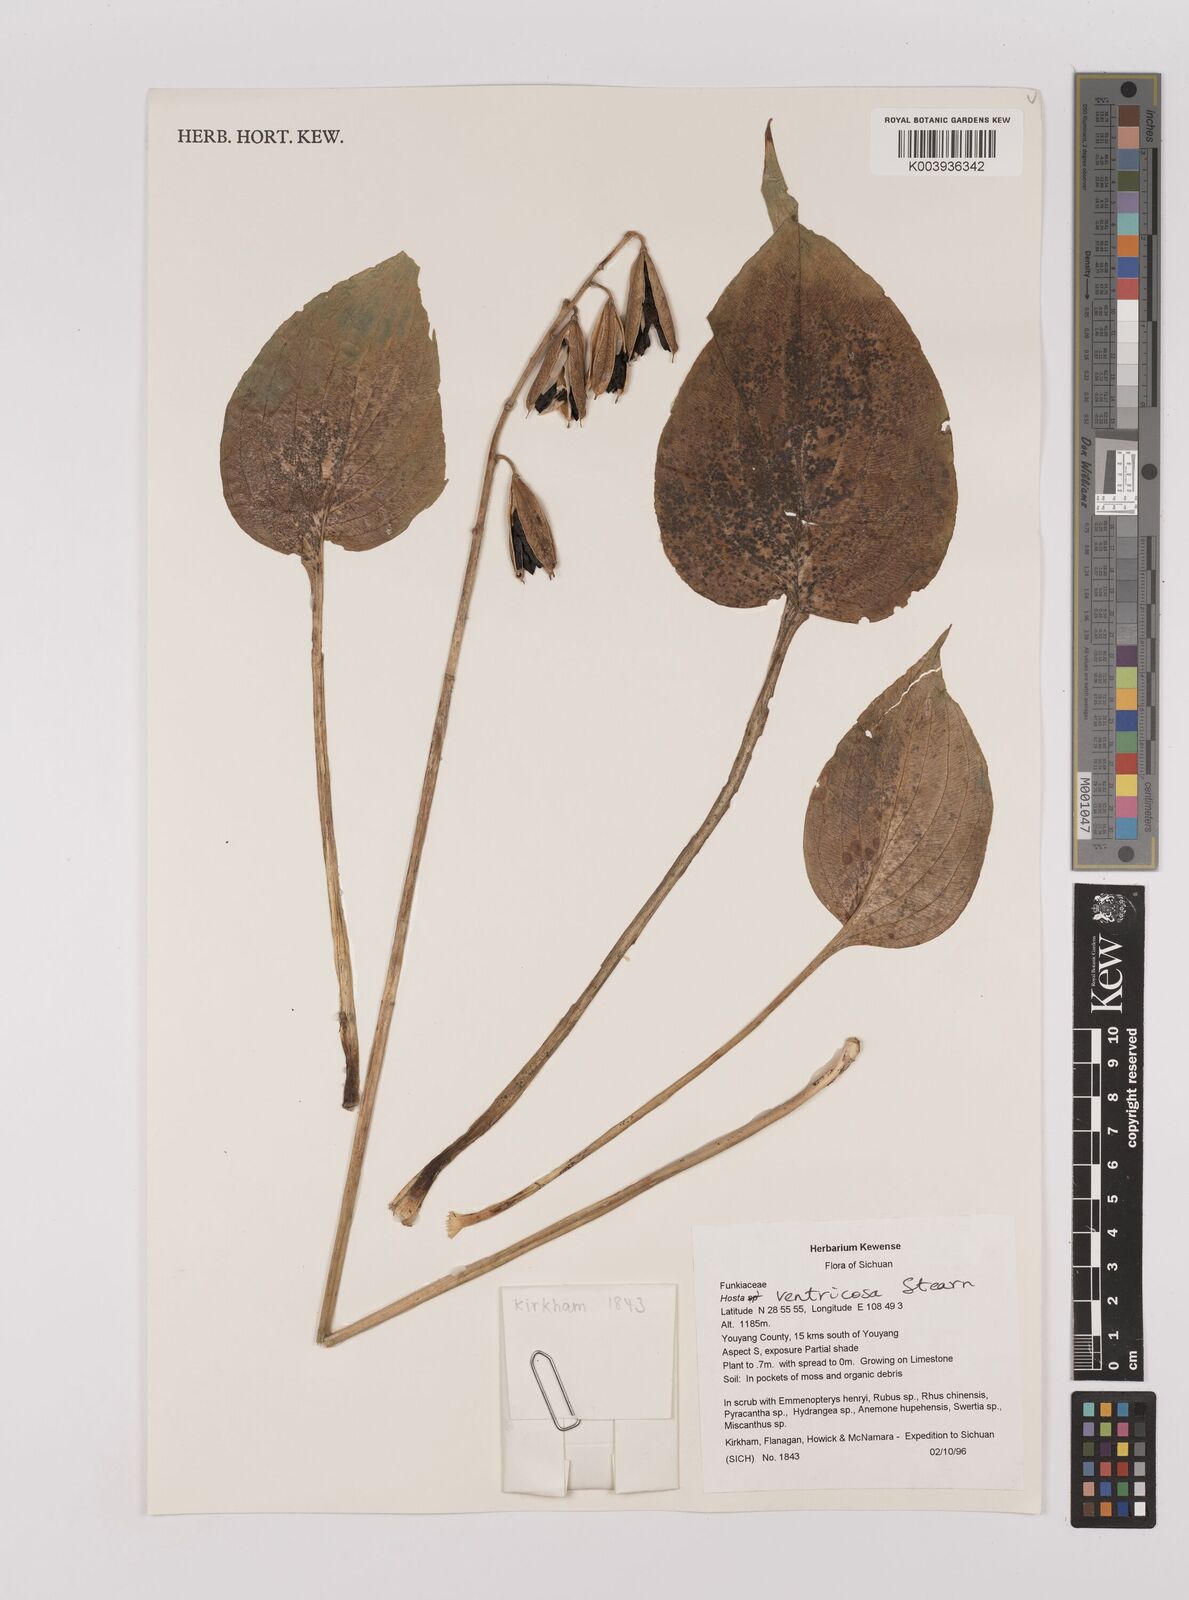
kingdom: Plantae
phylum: Tracheophyta
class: Liliopsida
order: Asparagales
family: Asparagaceae
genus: Hosta
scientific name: Hosta ventricosa
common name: Blue plantain-lily
